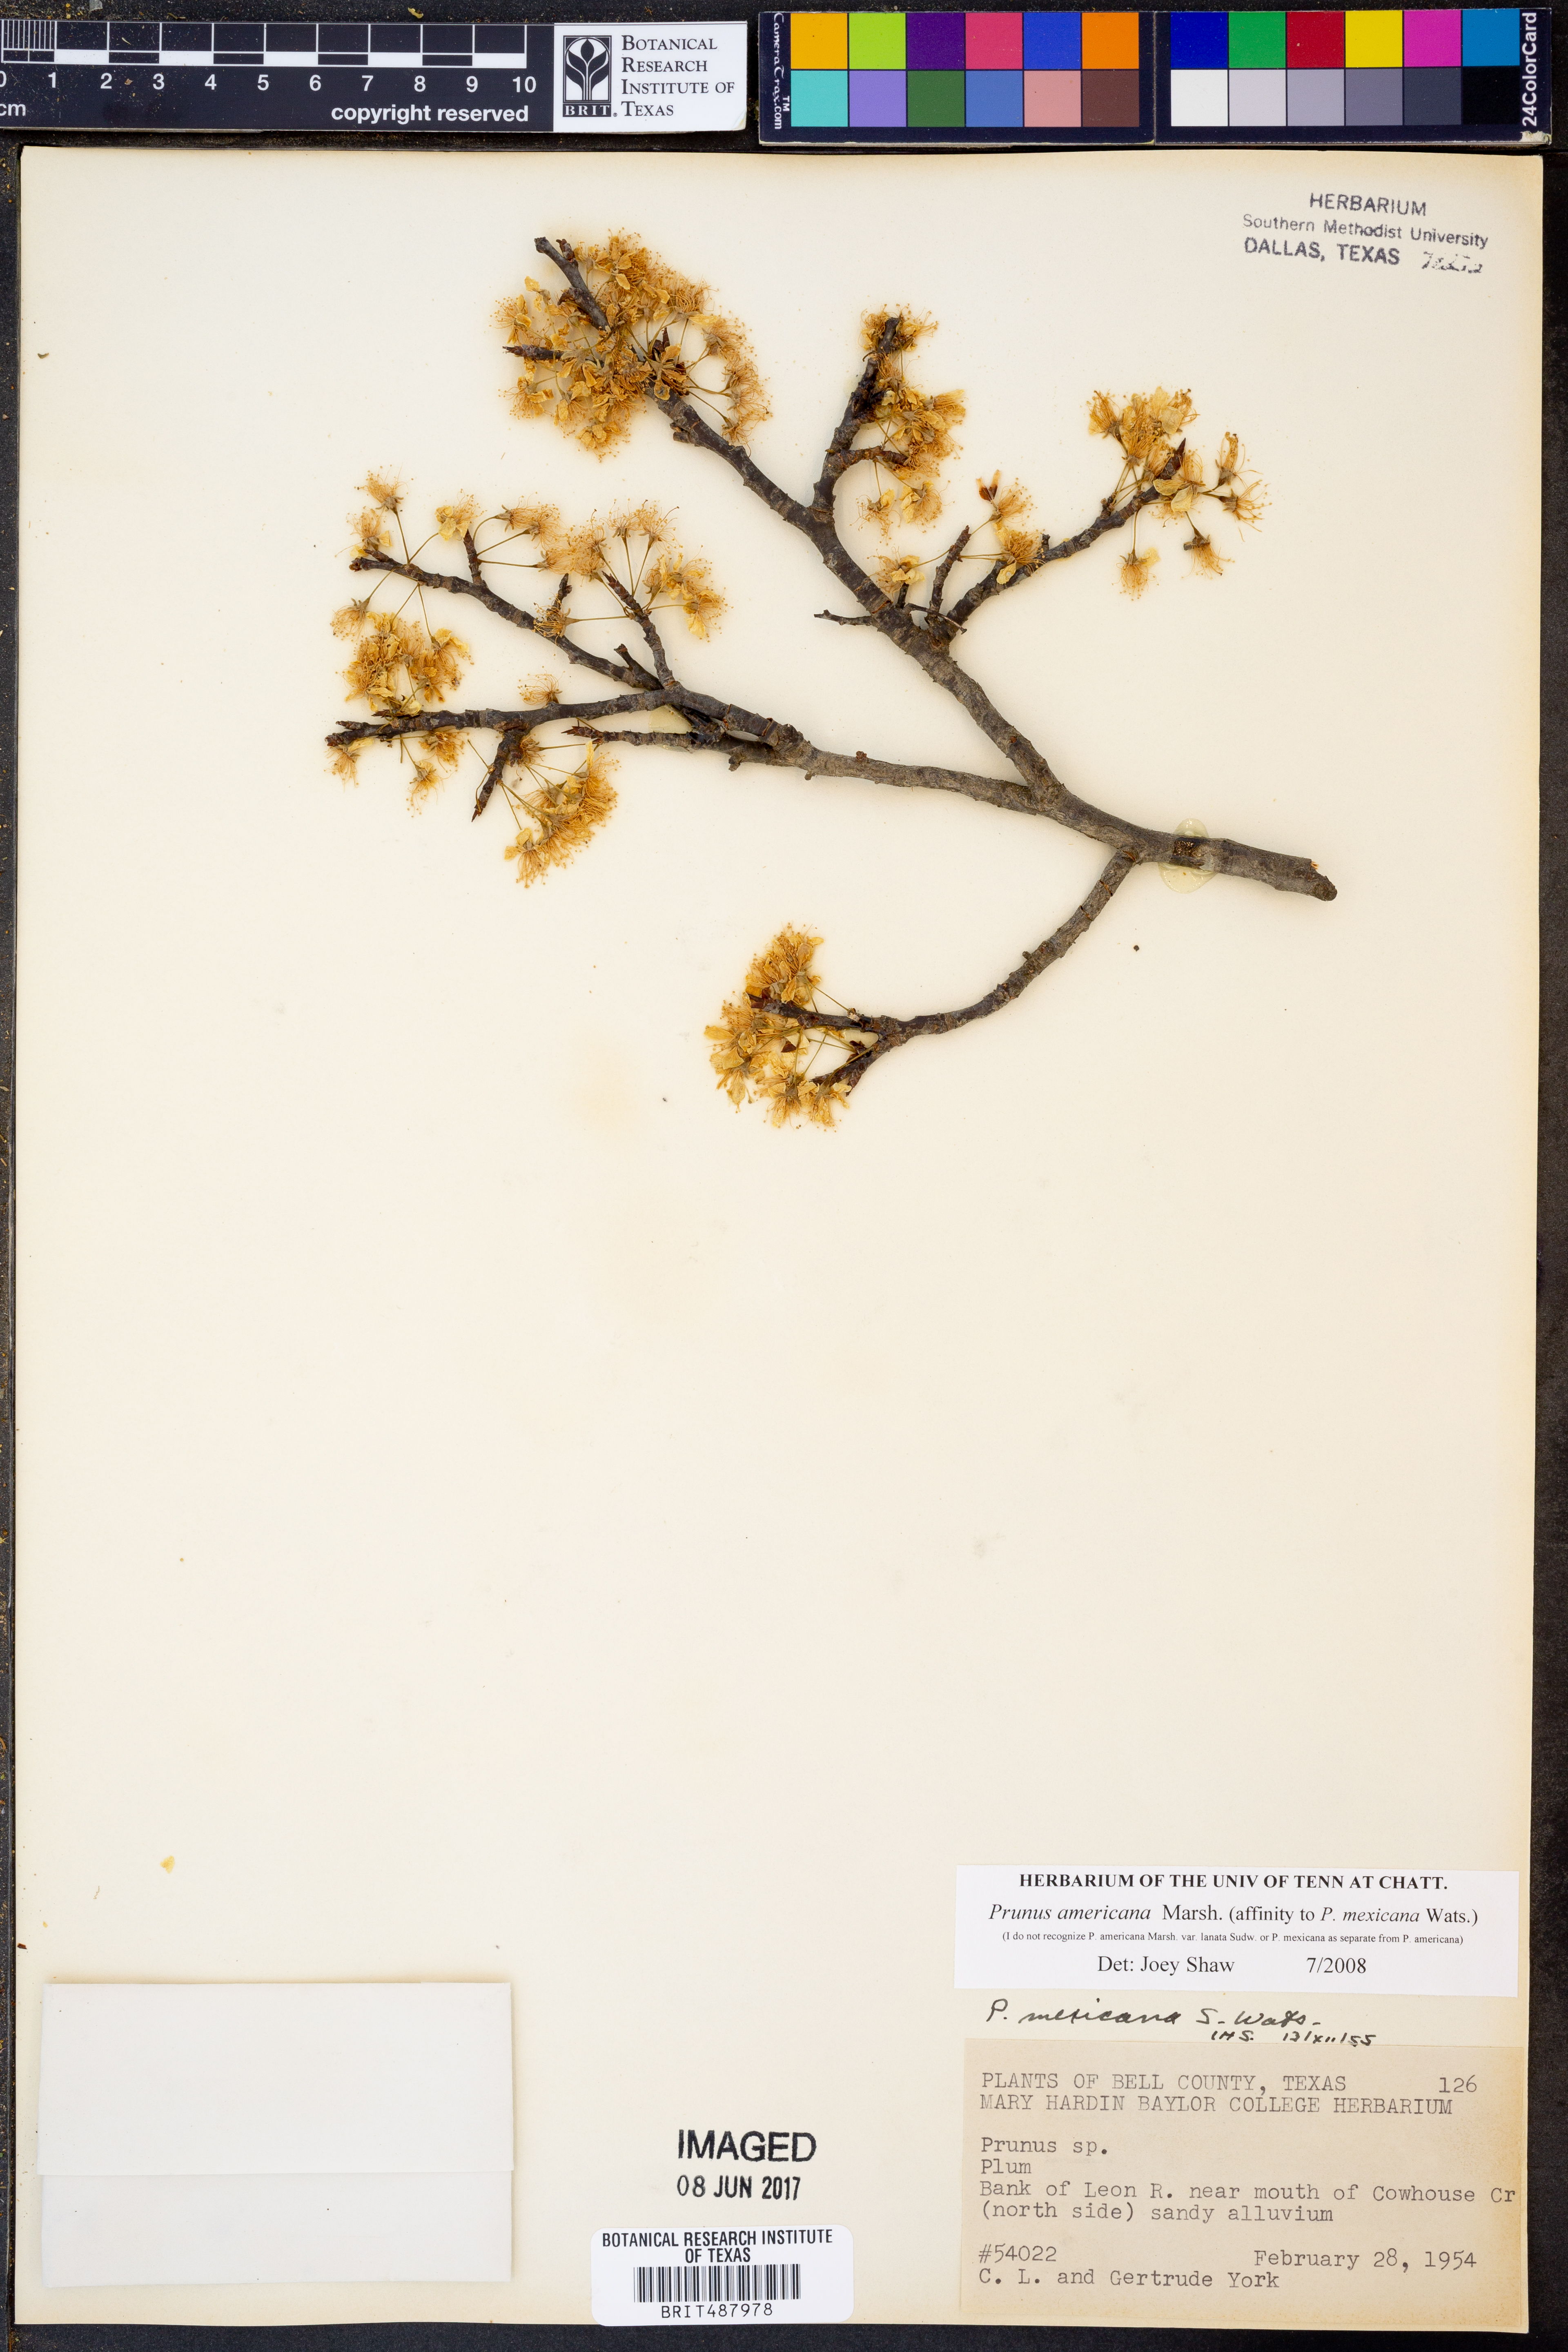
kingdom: Plantae
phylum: Tracheophyta
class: Magnoliopsida
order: Rosales
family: Rosaceae
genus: Prunus
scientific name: Prunus americana
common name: American plum
